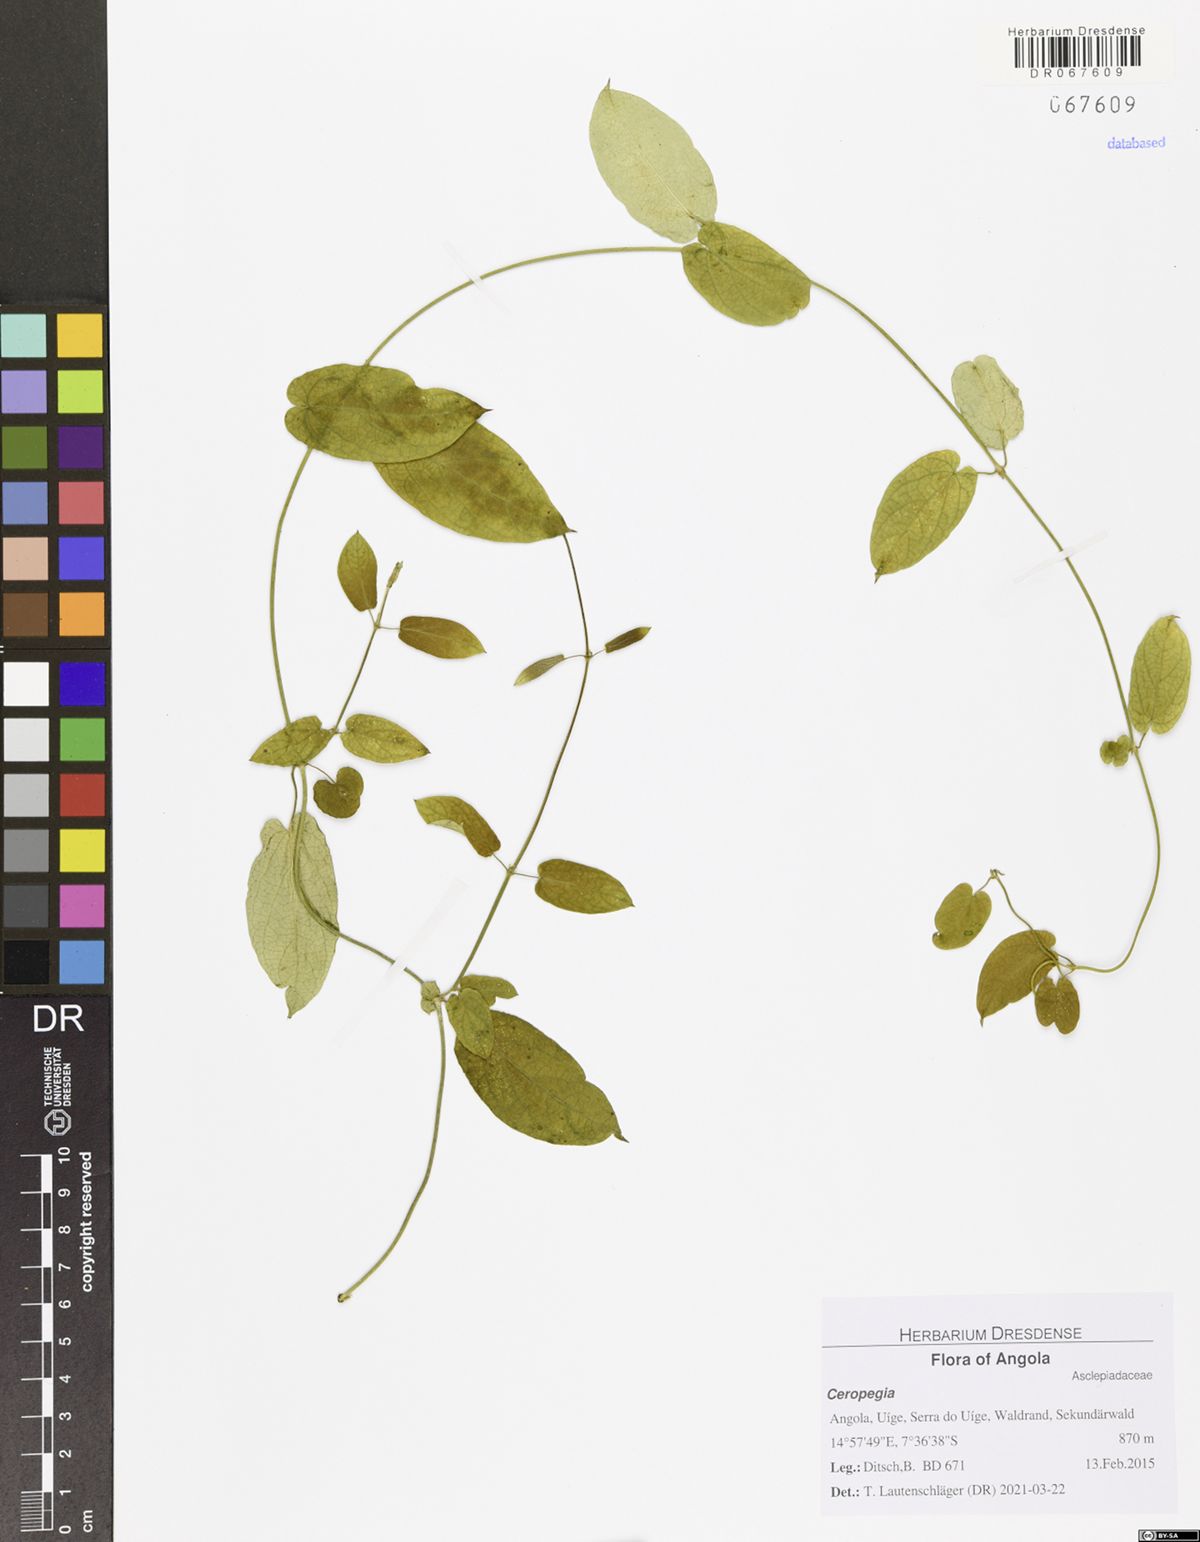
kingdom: Plantae
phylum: Tracheophyta
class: Magnoliopsida
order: Gentianales
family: Apocynaceae
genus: Ceropegia
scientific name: Ceropegia
